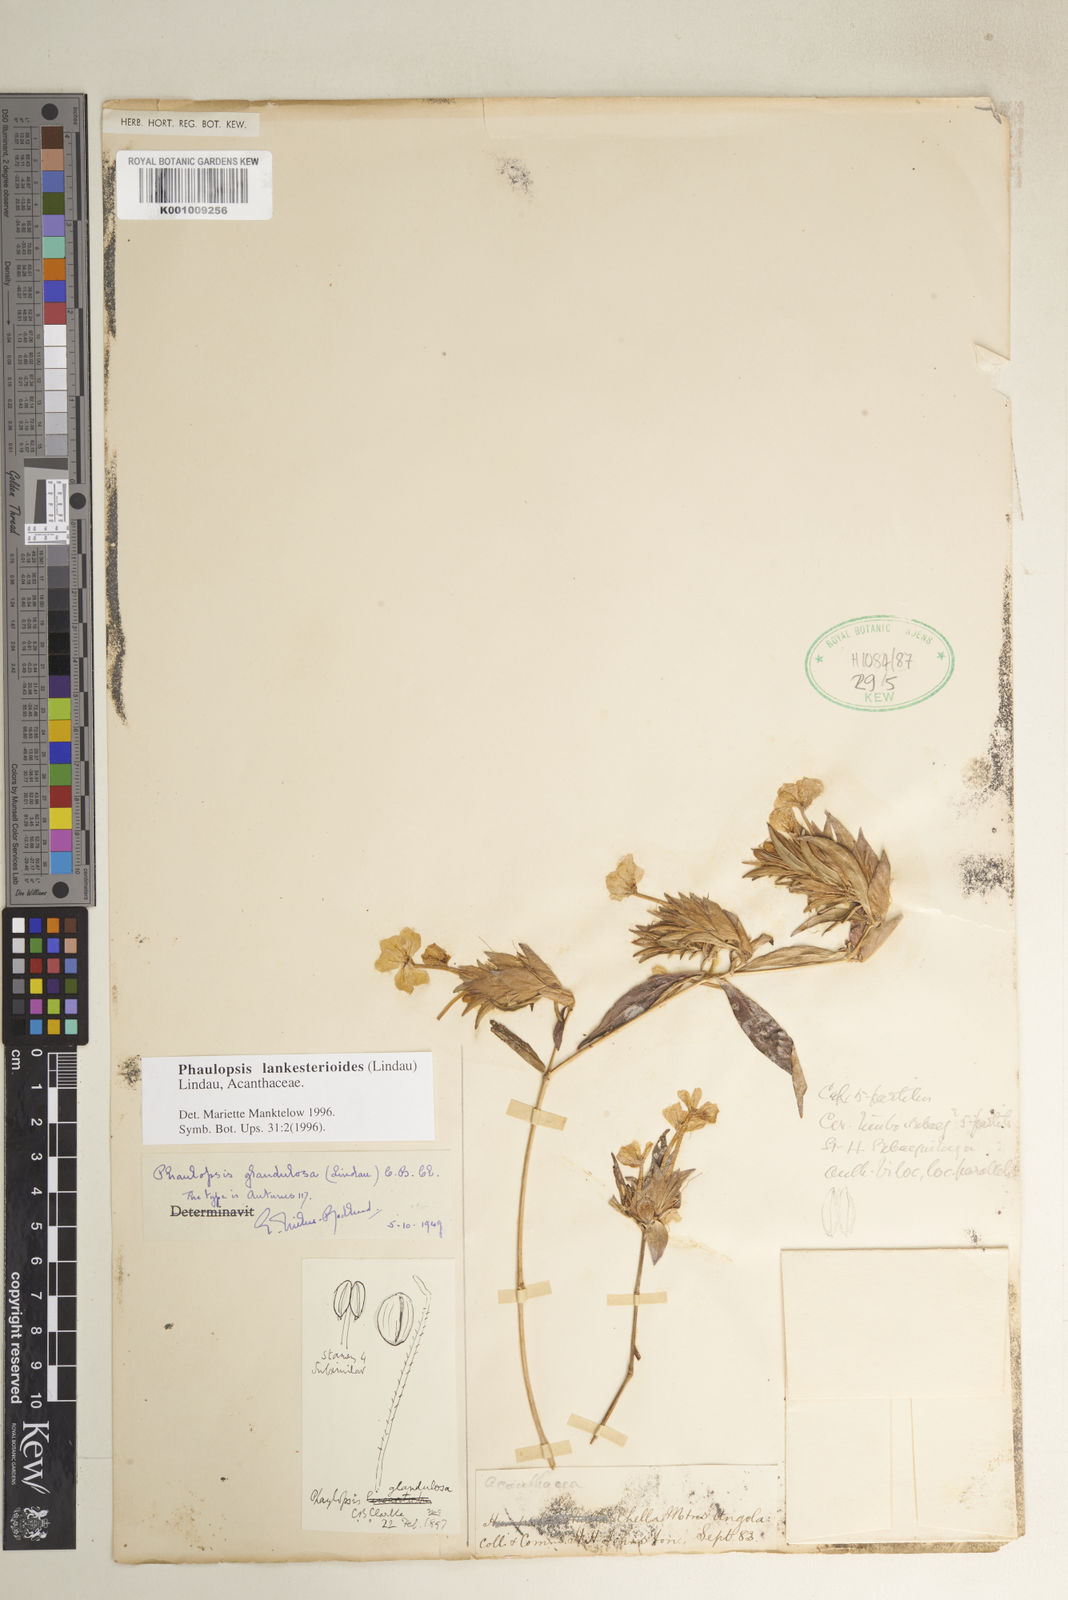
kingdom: Plantae
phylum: Tracheophyta
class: Magnoliopsida
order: Lamiales
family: Acanthaceae
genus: Phaulopsis
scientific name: Phaulopsis lankesterioides
